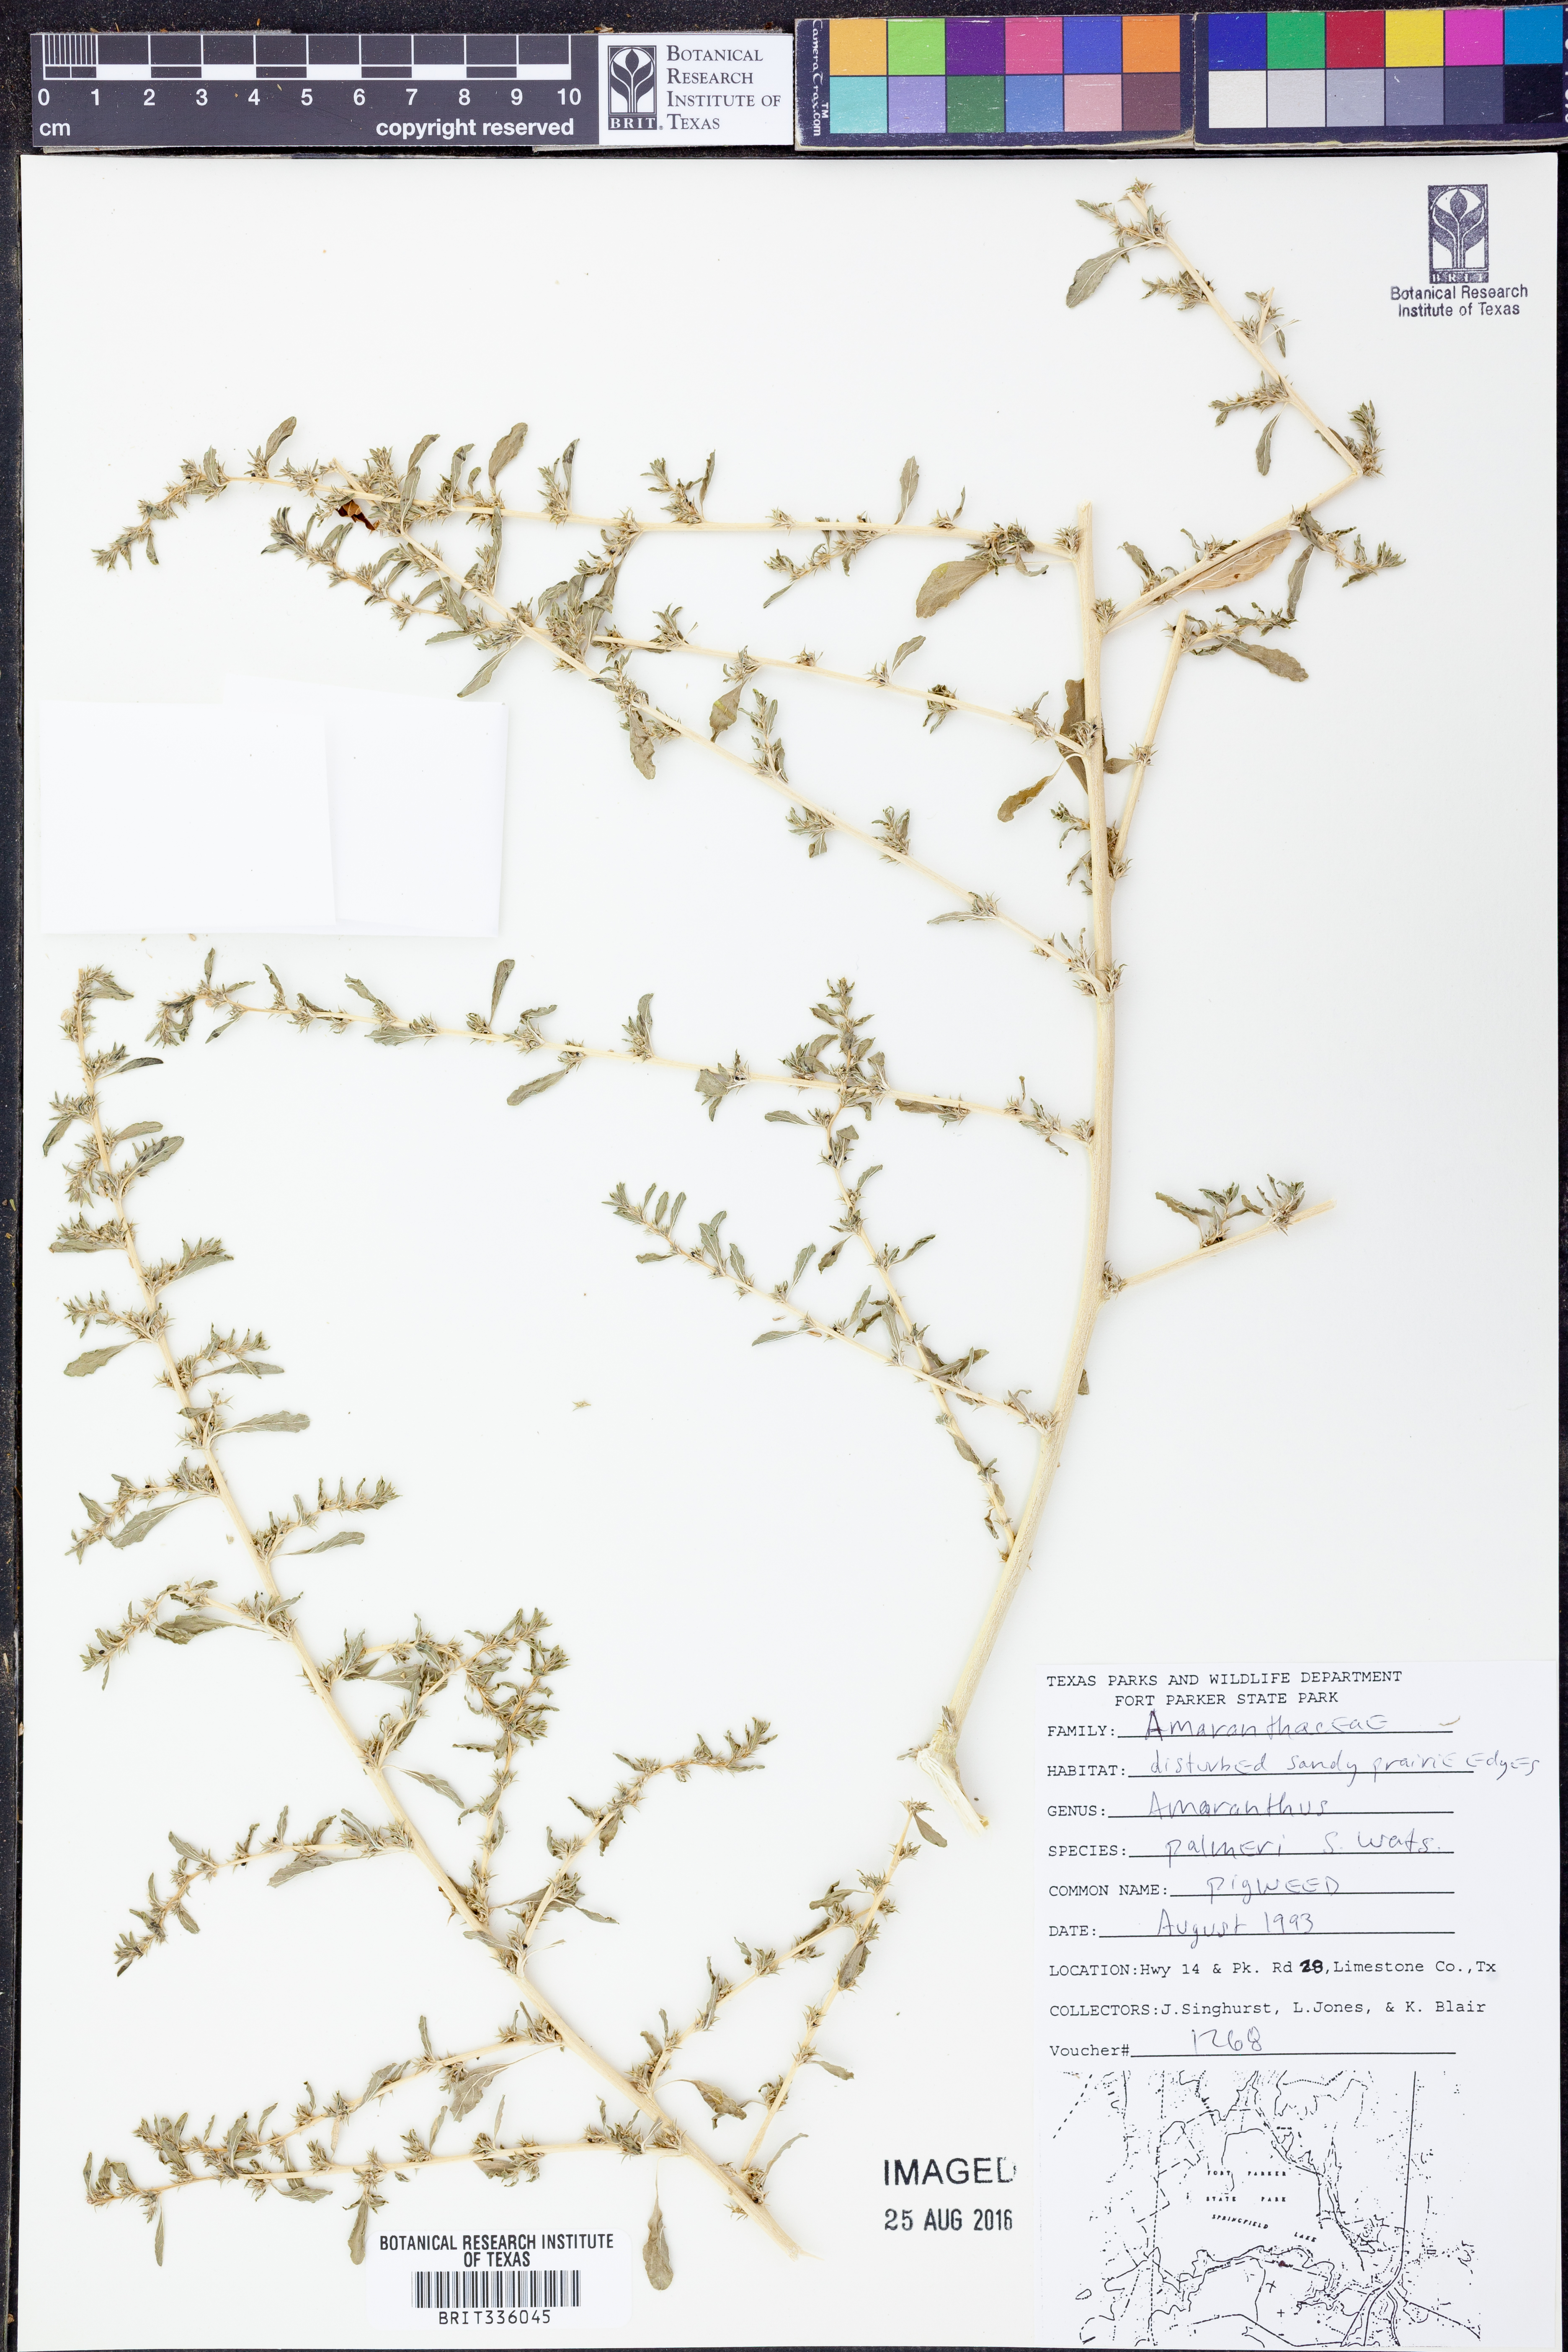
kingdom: Plantae
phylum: Tracheophyta
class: Magnoliopsida
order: Caryophyllales
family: Amaranthaceae
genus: Amaranthus
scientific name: Amaranthus palmeri
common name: Dioecious amaranth
